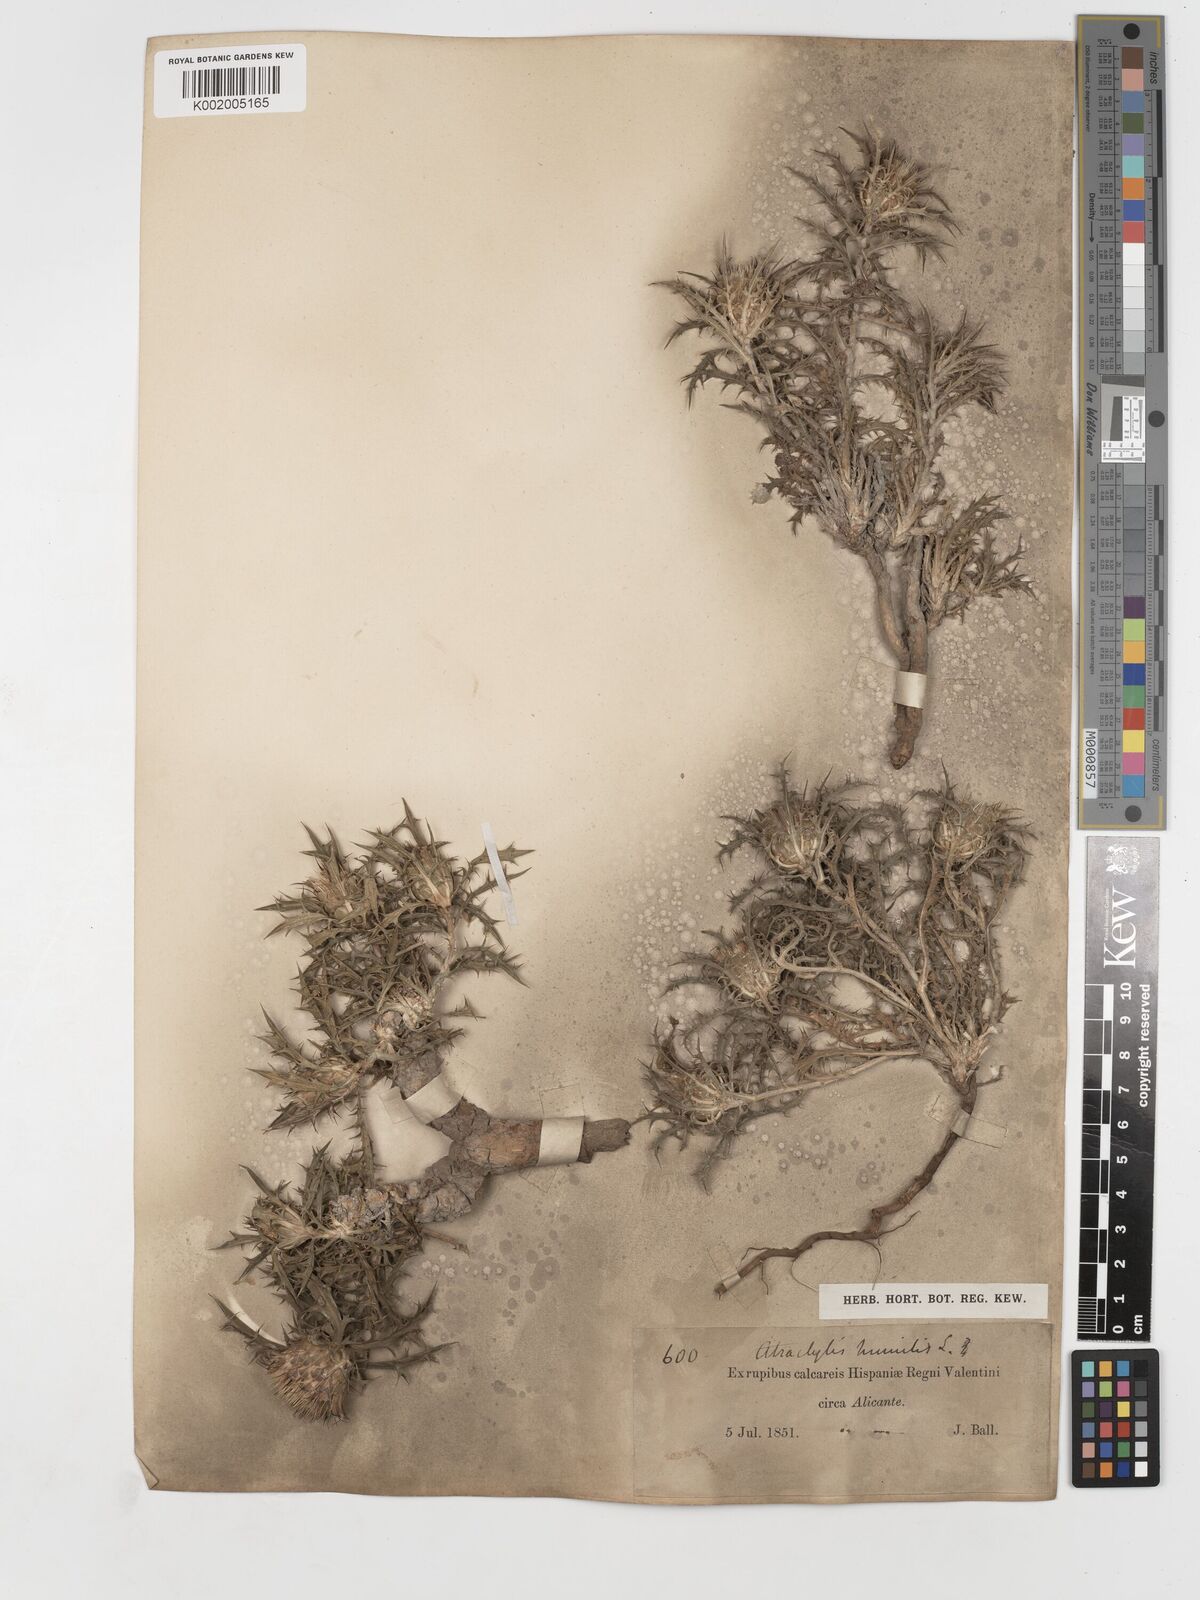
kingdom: Plantae
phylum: Tracheophyta
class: Magnoliopsida
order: Asterales
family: Asteraceae
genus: Atractylis
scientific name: Atractylis humilis
